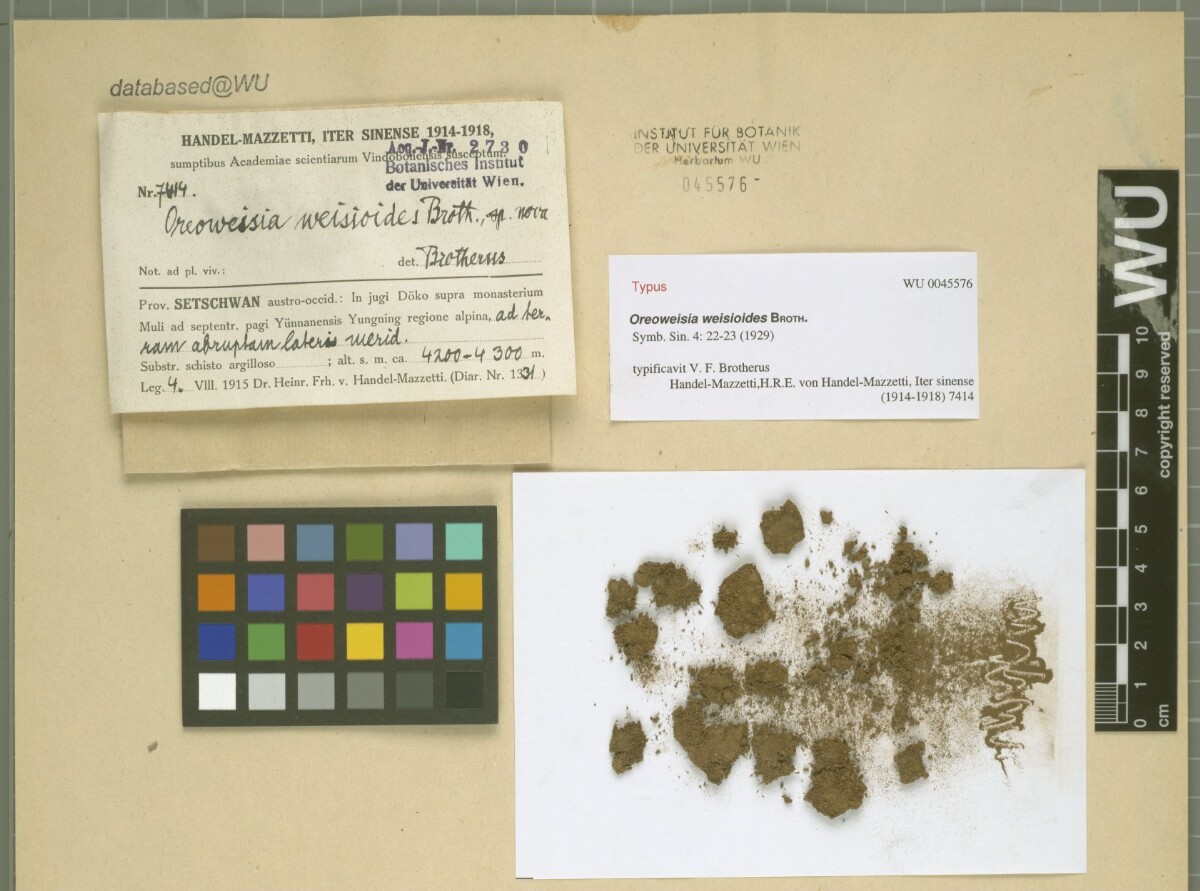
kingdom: Plantae
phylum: Bryophyta
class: Bryopsida
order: Dicranales
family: Rhabdoweisiaceae
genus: Cynodontium
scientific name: Cynodontium weisioides
